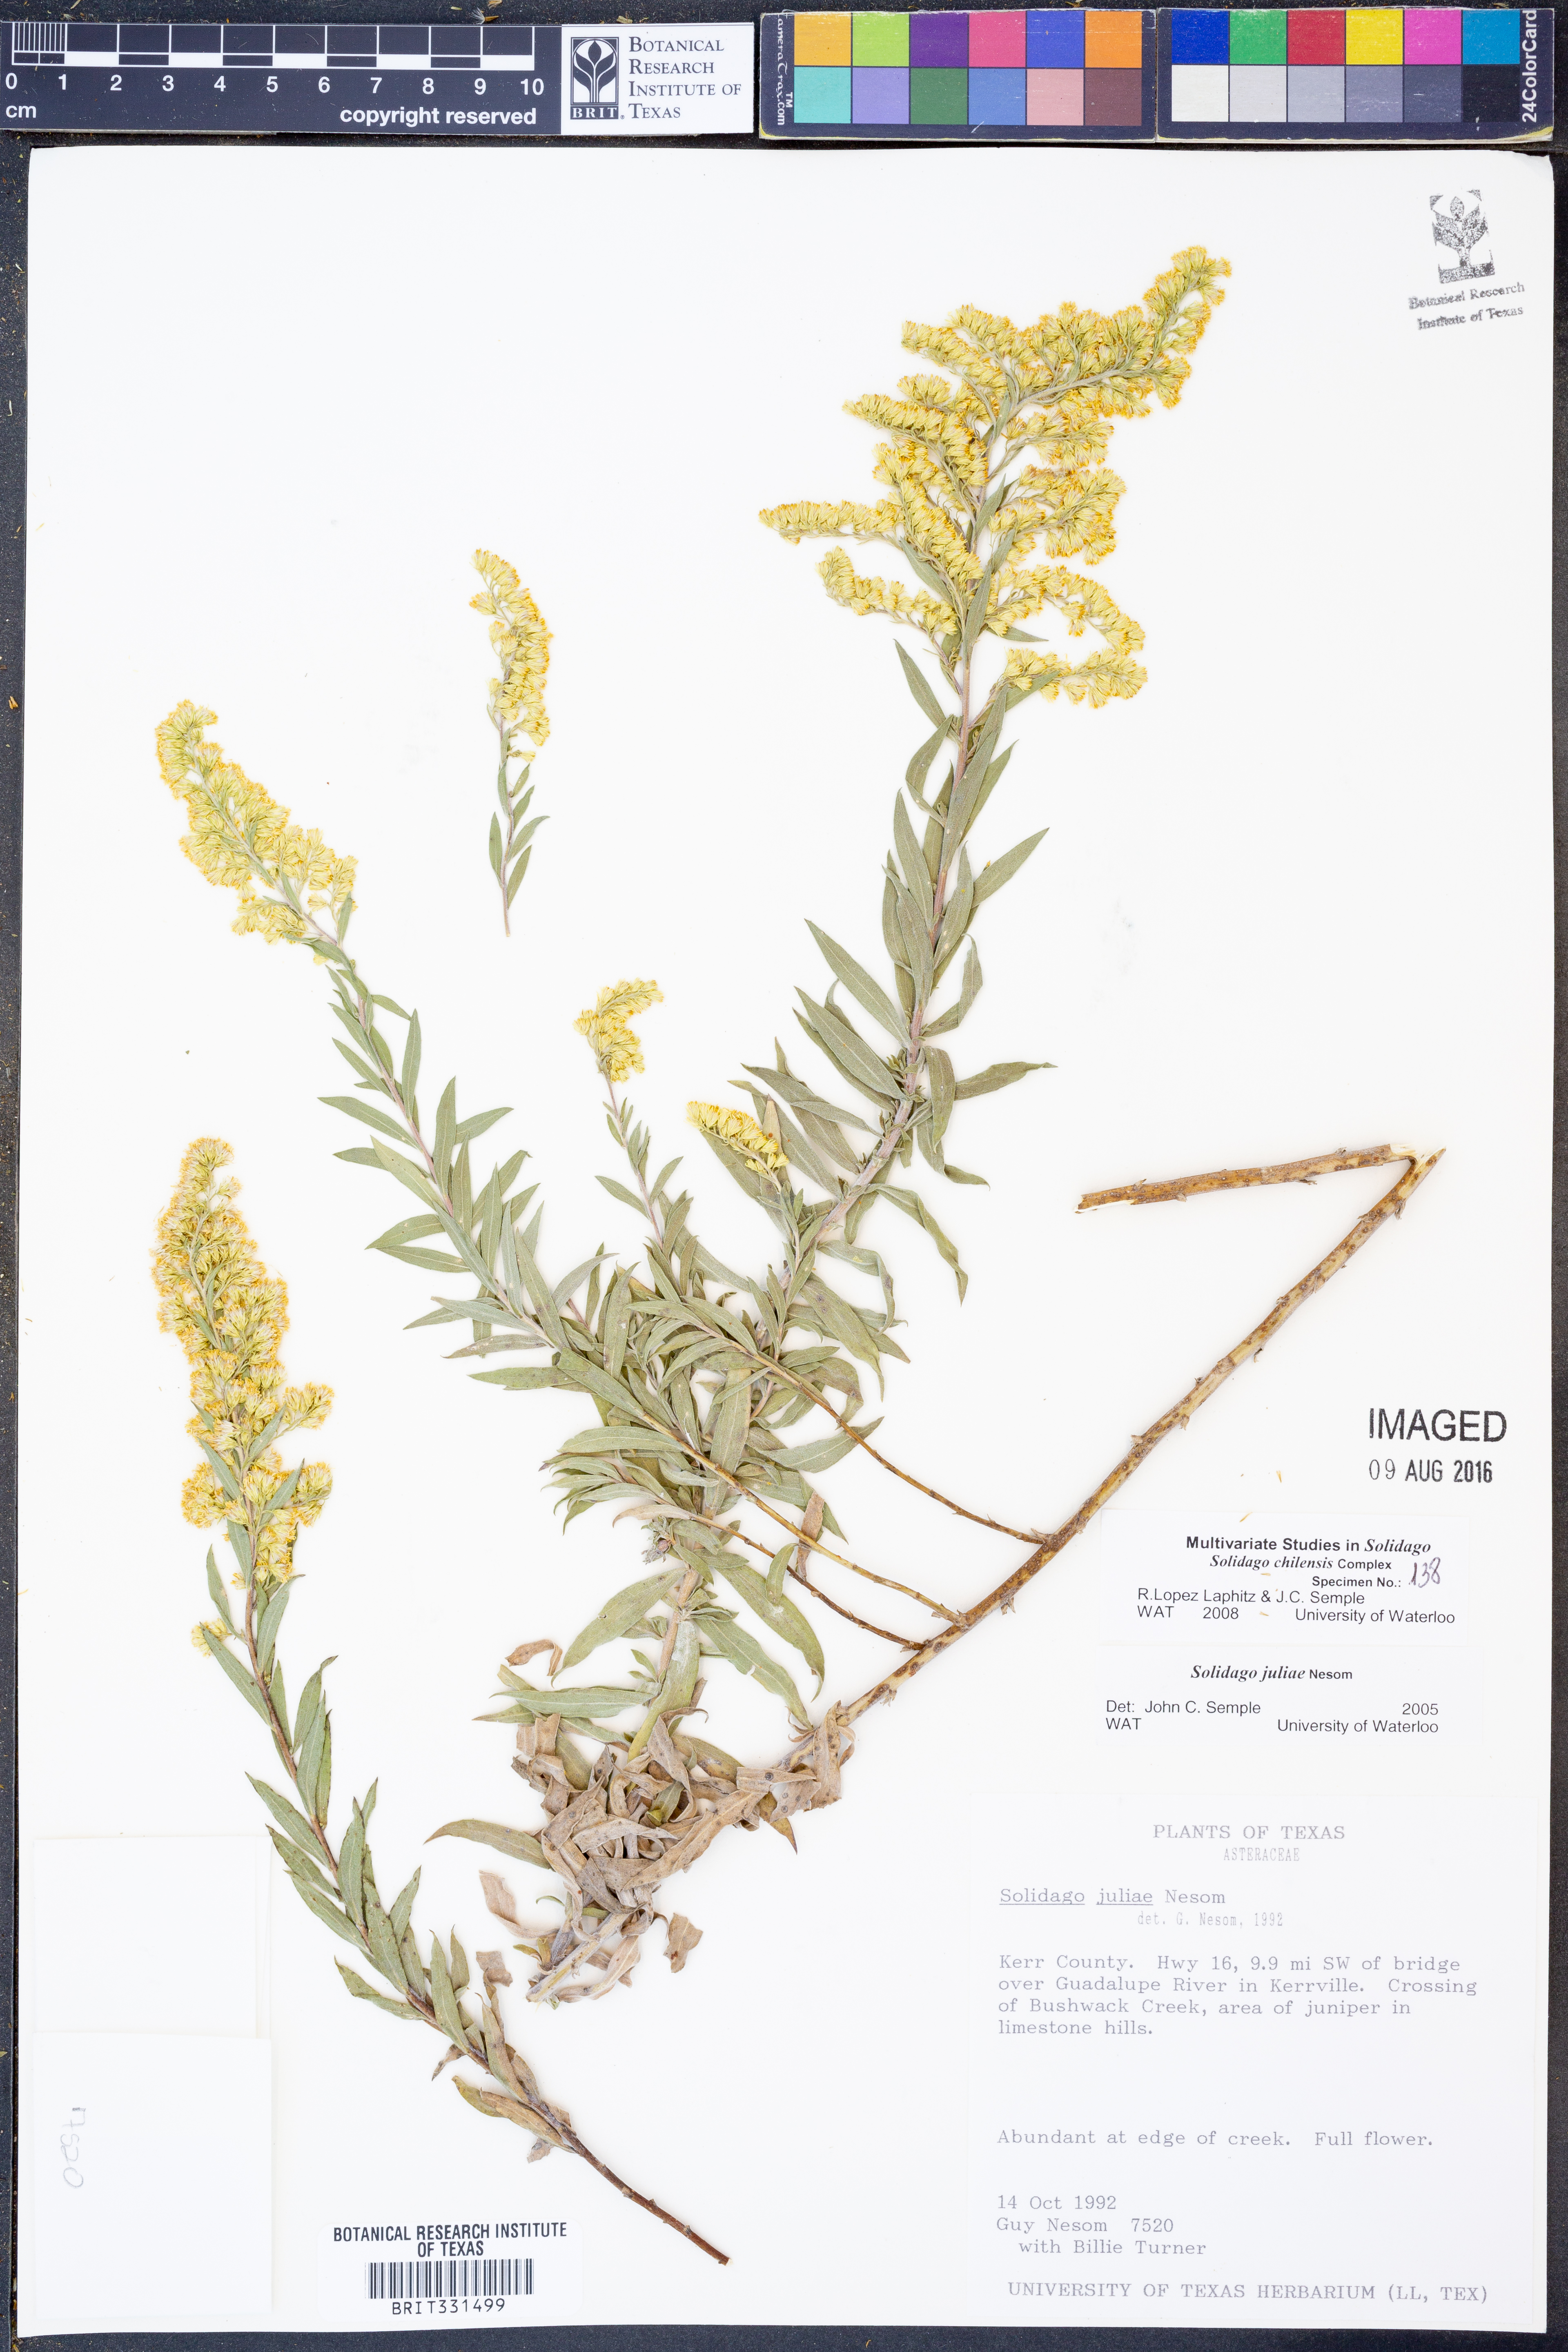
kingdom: Plantae
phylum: Tracheophyta
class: Magnoliopsida
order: Asterales
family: Asteraceae
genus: Solidago
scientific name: Solidago juliae
